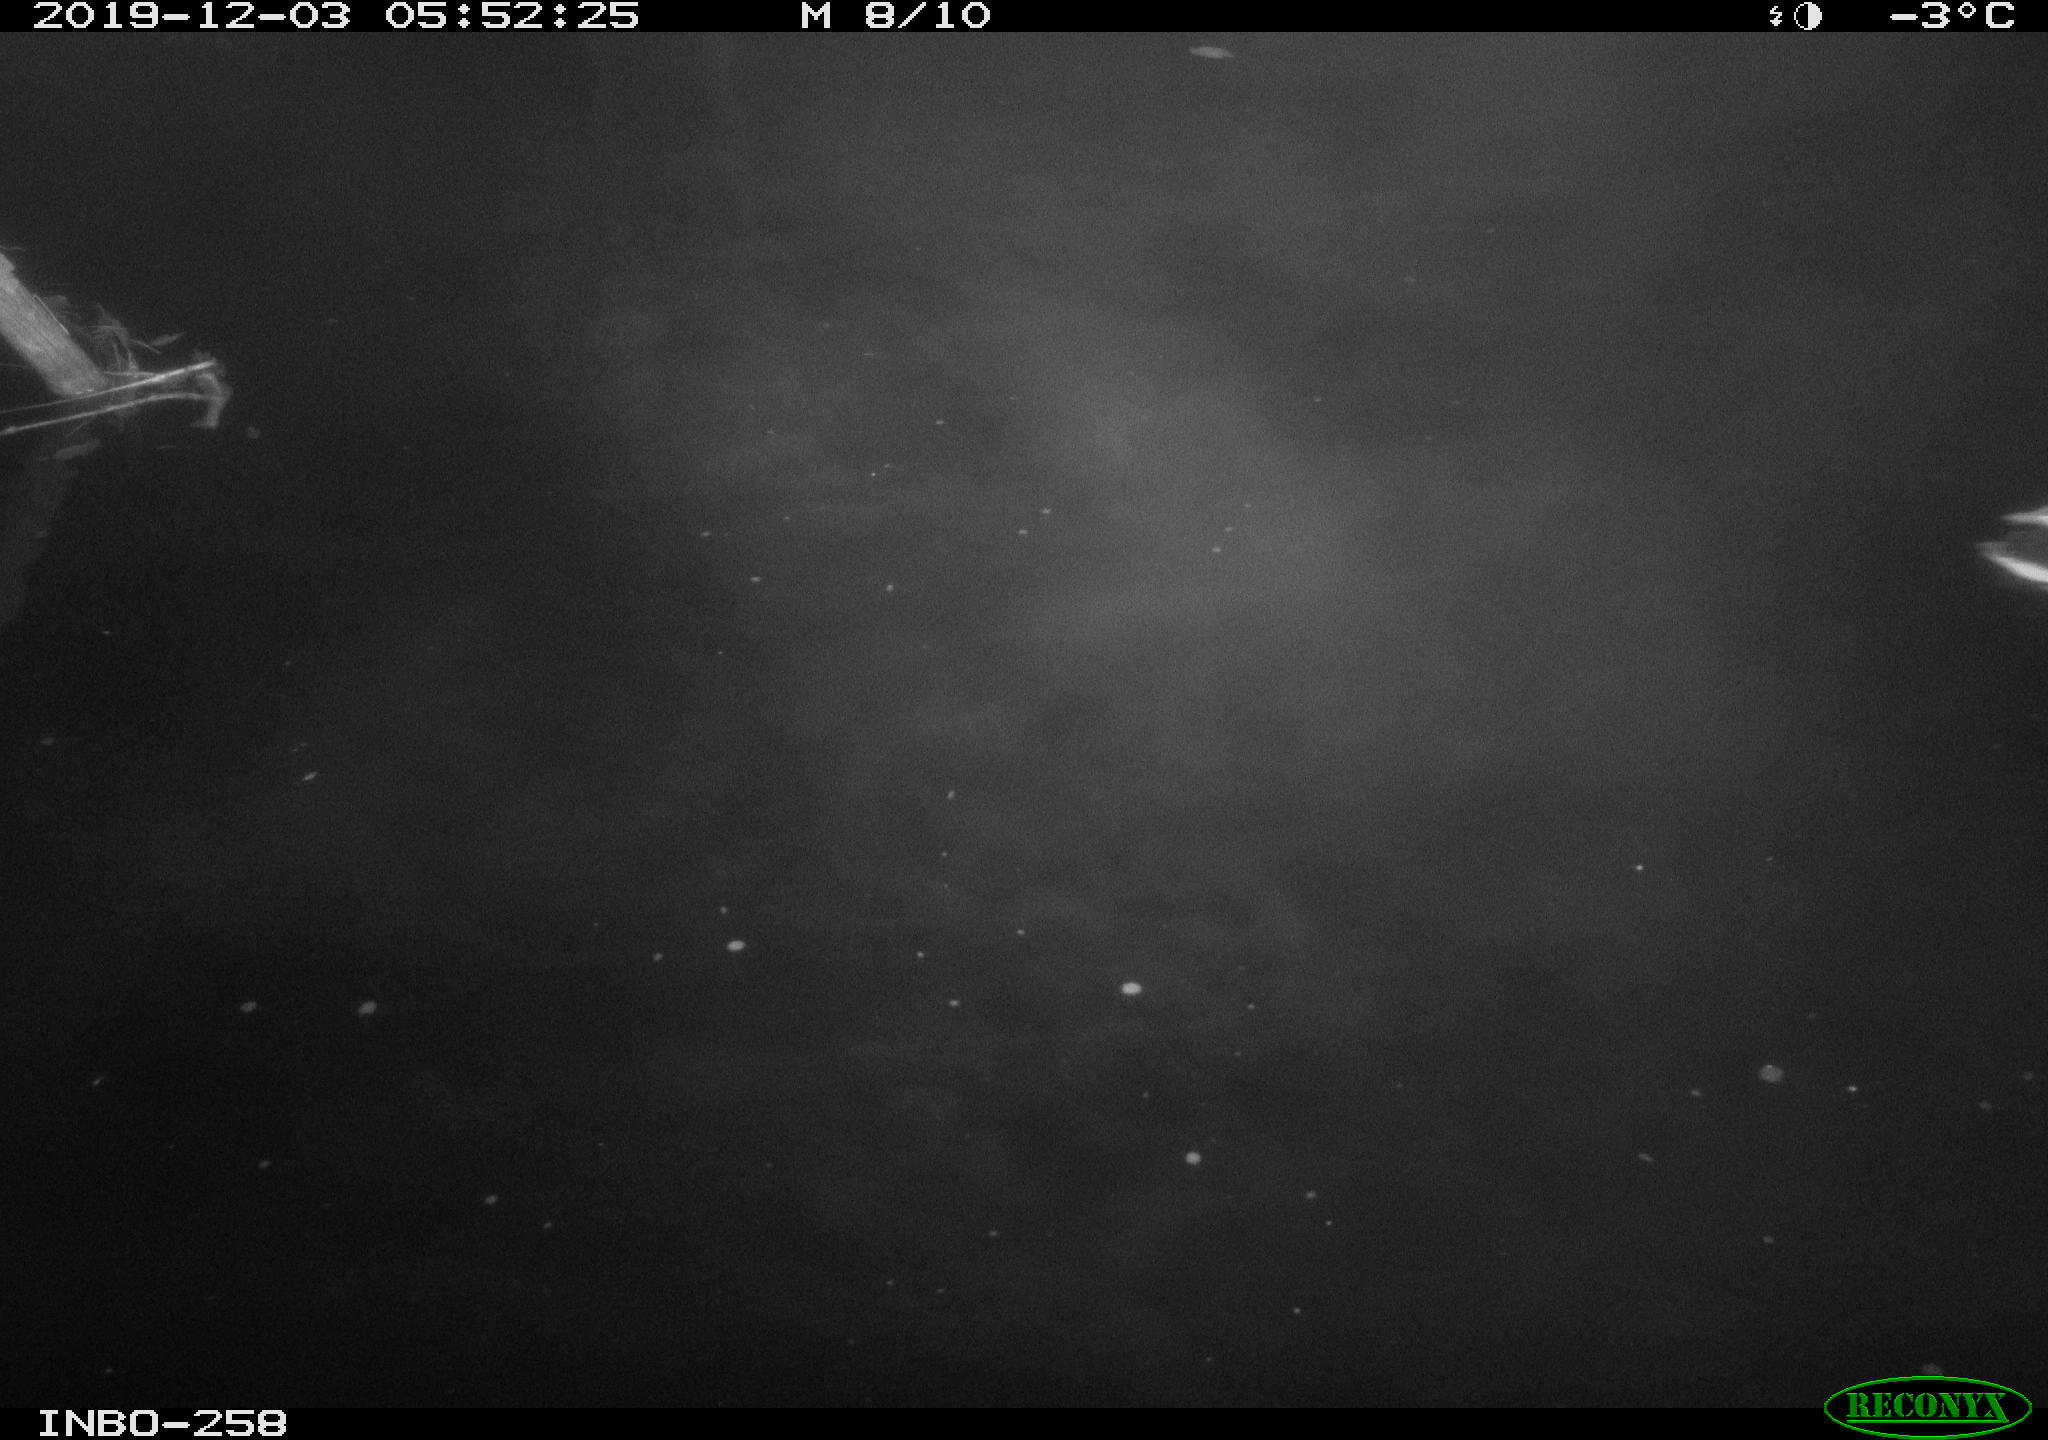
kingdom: Animalia
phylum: Chordata
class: Aves
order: Anseriformes
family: Anatidae
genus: Anas
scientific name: Anas platyrhynchos
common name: Mallard
